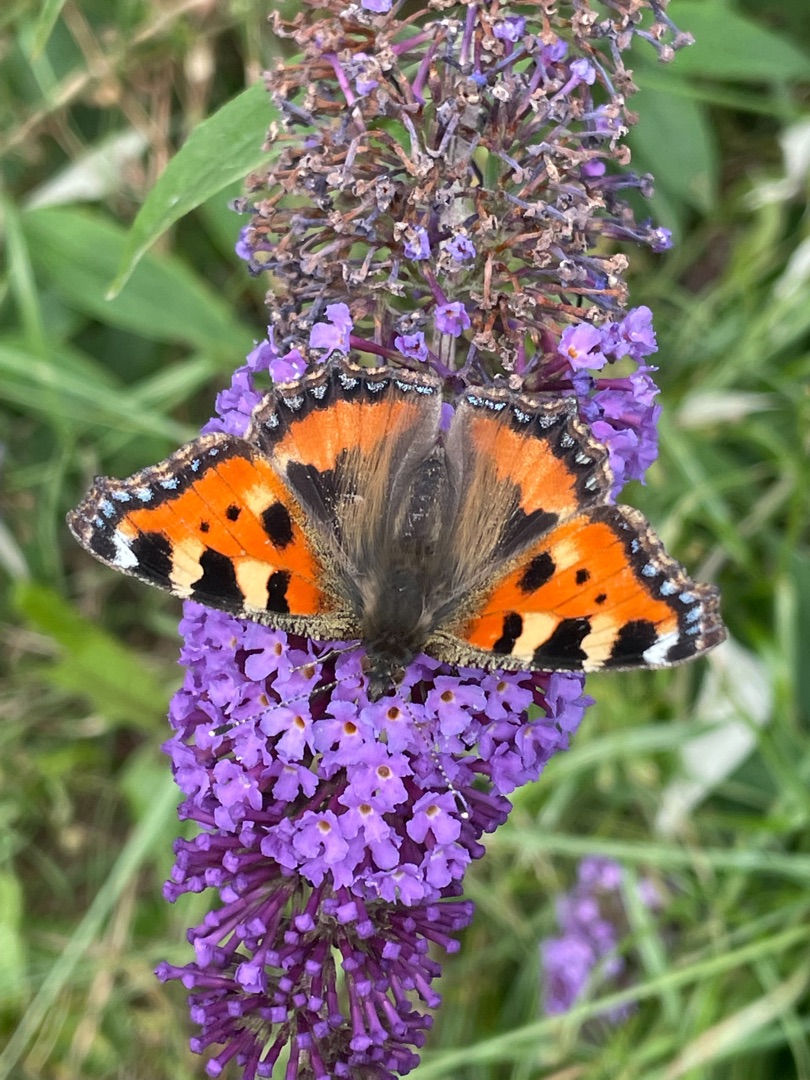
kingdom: Animalia
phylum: Arthropoda
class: Insecta
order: Lepidoptera
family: Nymphalidae
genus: Aglais
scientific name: Aglais urticae
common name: Nældens takvinge
